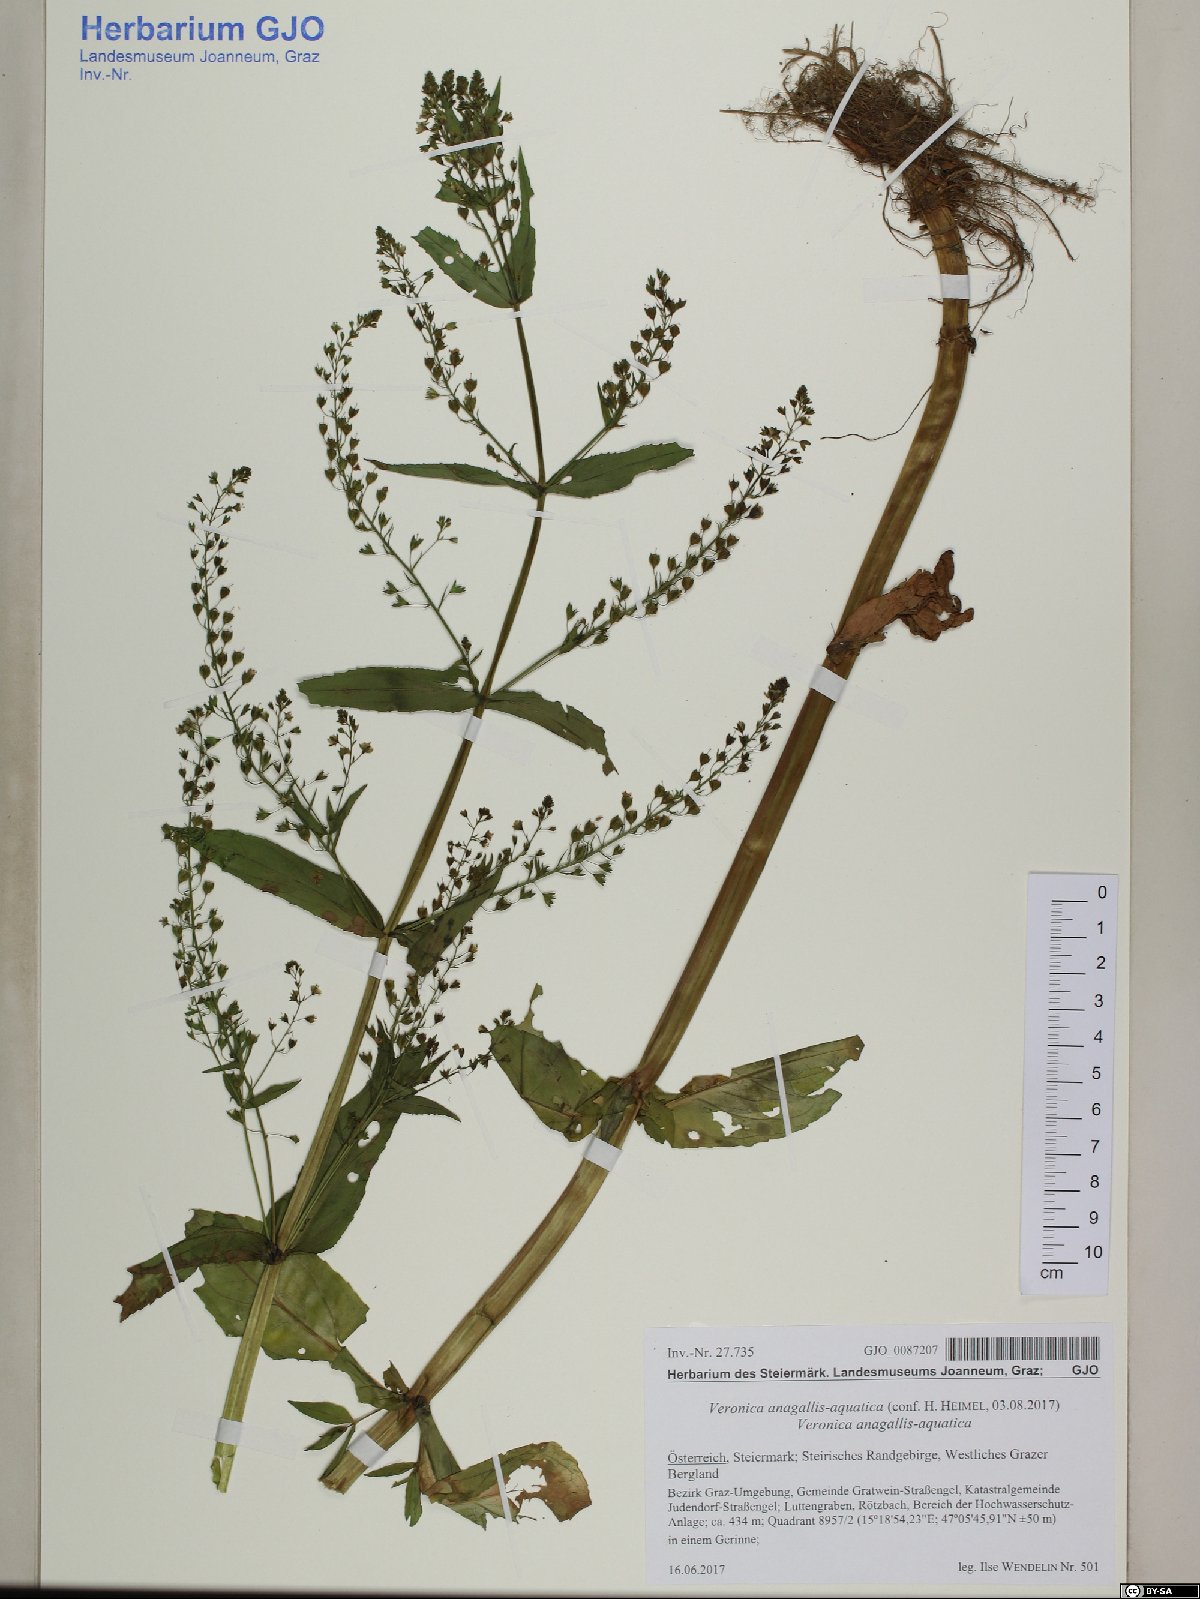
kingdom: Plantae
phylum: Tracheophyta
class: Magnoliopsida
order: Lamiales
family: Plantaginaceae
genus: Veronica
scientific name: Veronica anagallis-aquatica
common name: Water speedwell
